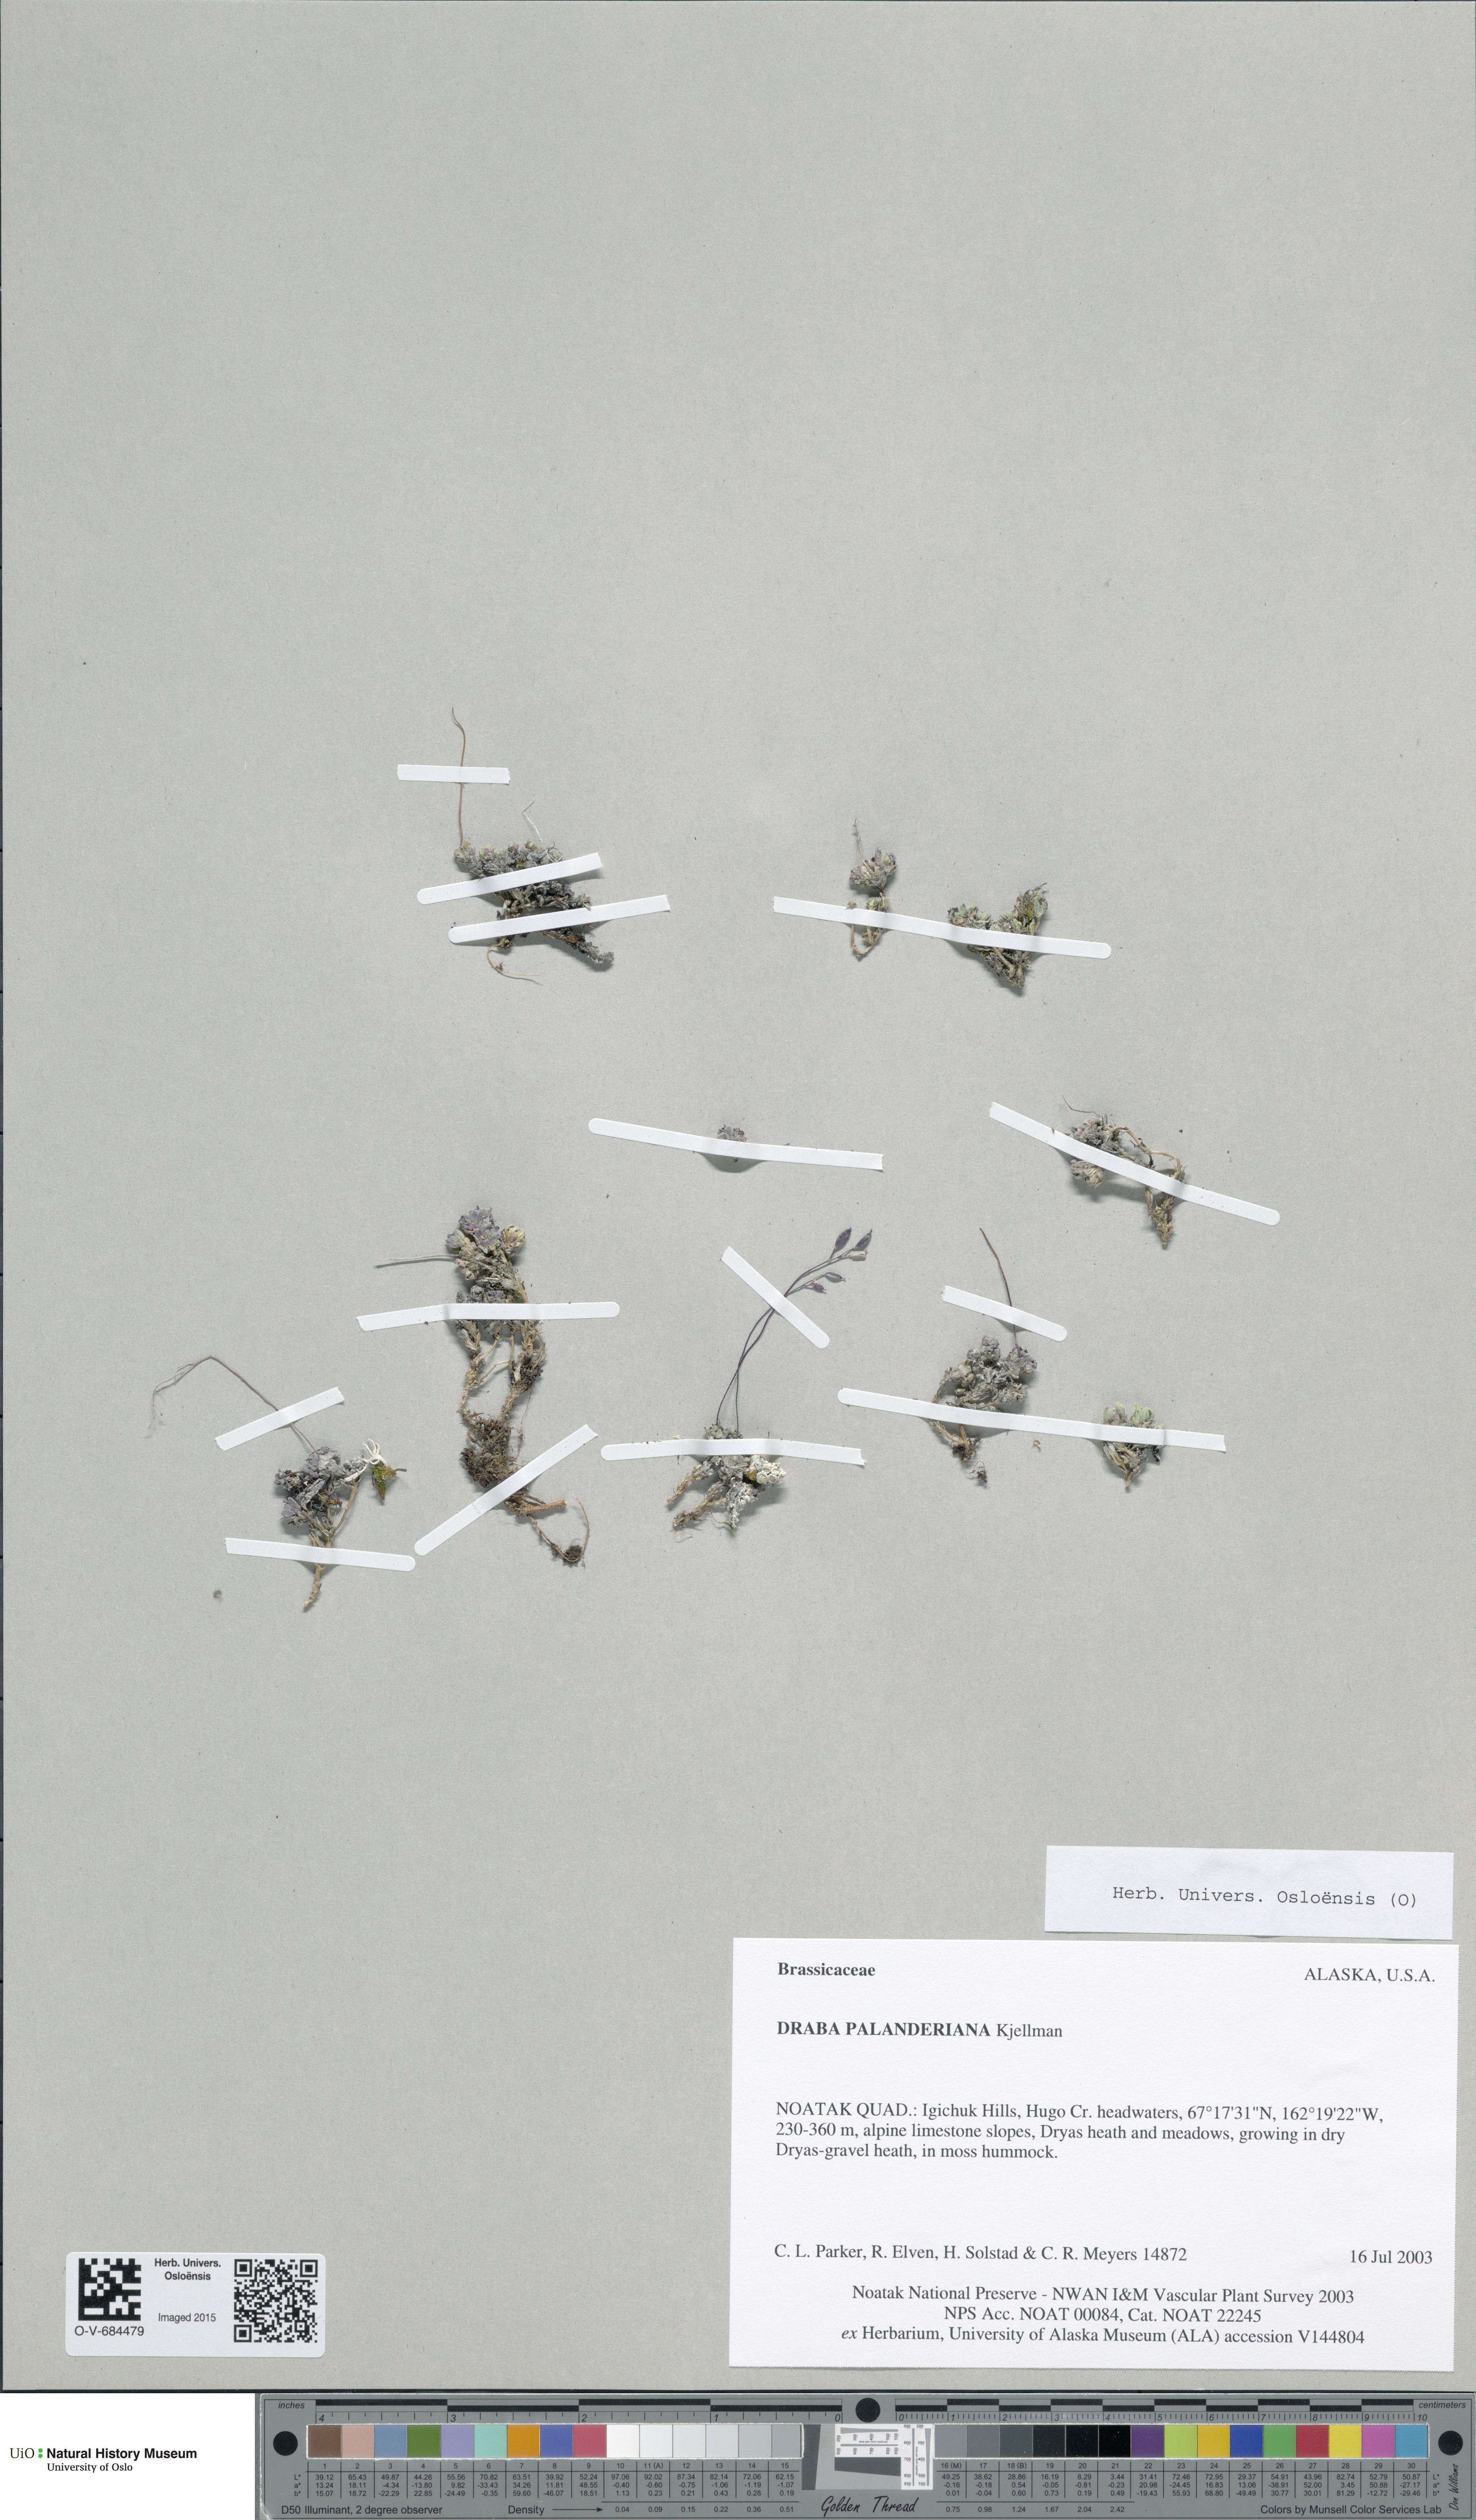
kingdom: Plantae
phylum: Tracheophyta
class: Magnoliopsida
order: Brassicales
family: Brassicaceae
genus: Draba
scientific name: Draba palanderiana
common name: Palander's draba
